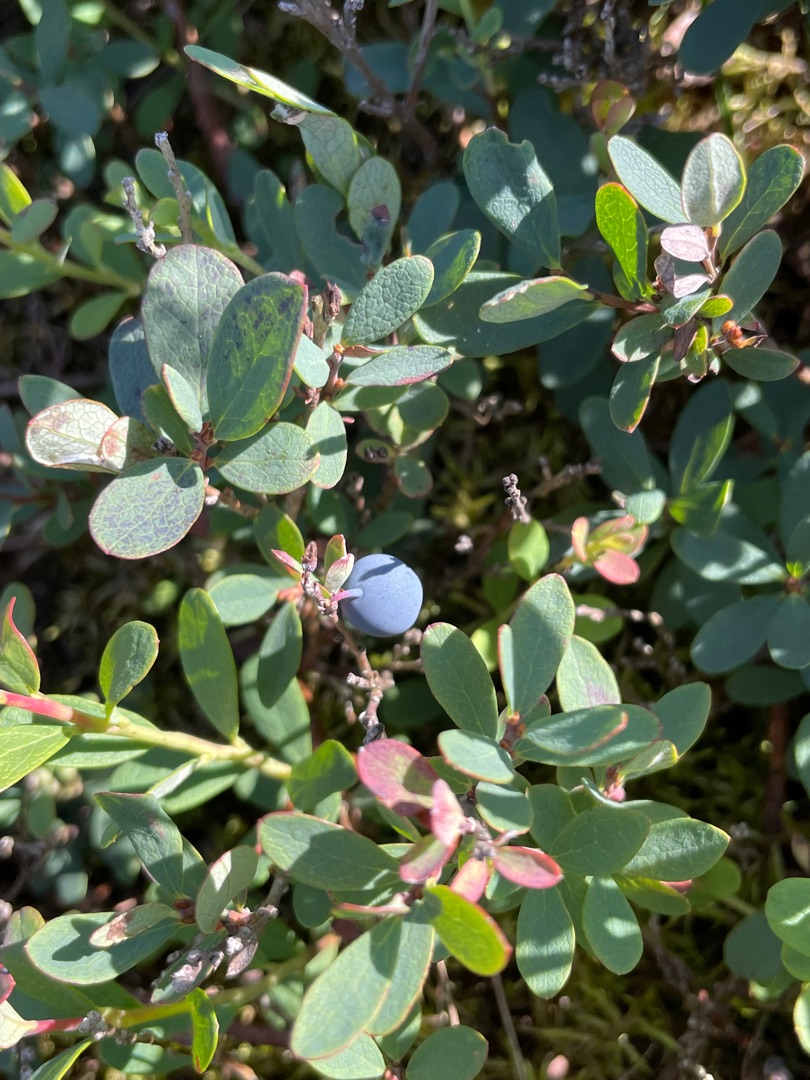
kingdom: Plantae
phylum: Tracheophyta
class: Magnoliopsida
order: Ericales
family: Ericaceae
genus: Vaccinium
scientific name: Vaccinium uliginosum
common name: Mose-bølle
